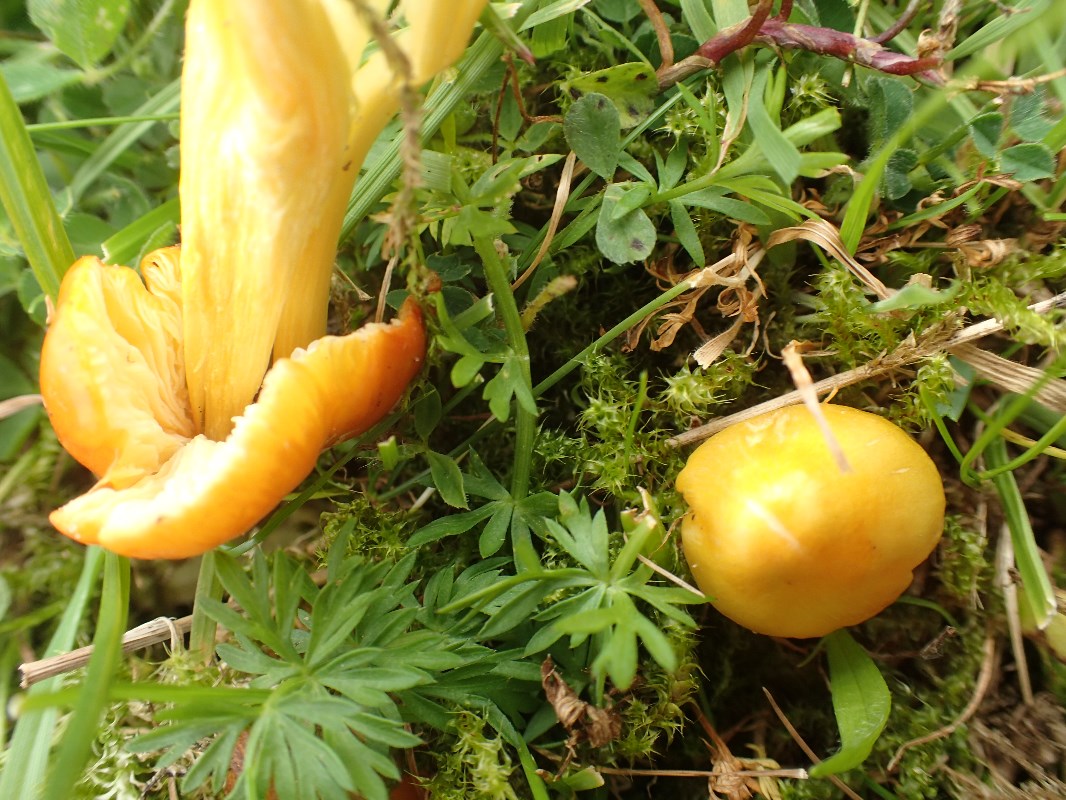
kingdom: Fungi
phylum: Basidiomycota
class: Agaricomycetes
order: Agaricales
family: Hygrophoraceae
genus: Hygrocybe
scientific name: Hygrocybe acutoconica
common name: spidspuklet vokshat
